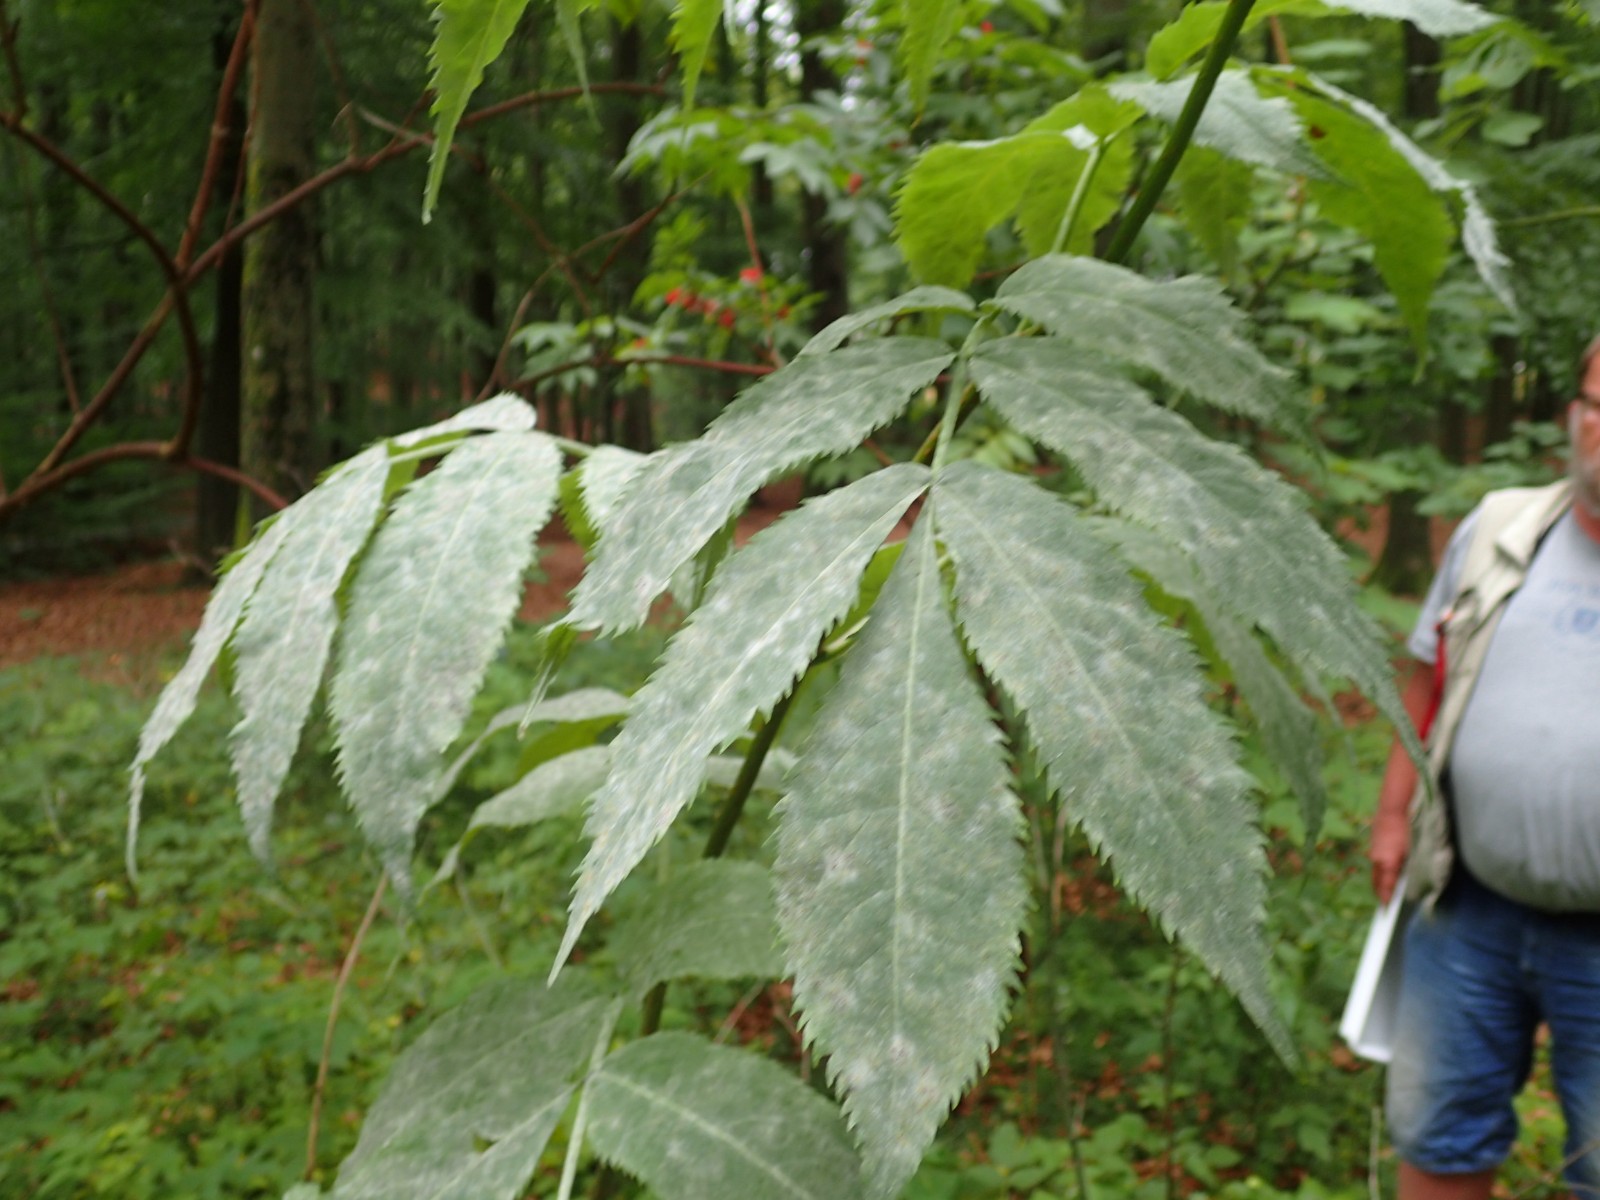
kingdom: Fungi
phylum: Ascomycota
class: Leotiomycetes
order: Helotiales
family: Erysiphaceae
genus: Erysiphe
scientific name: Erysiphe vanbruntiana
